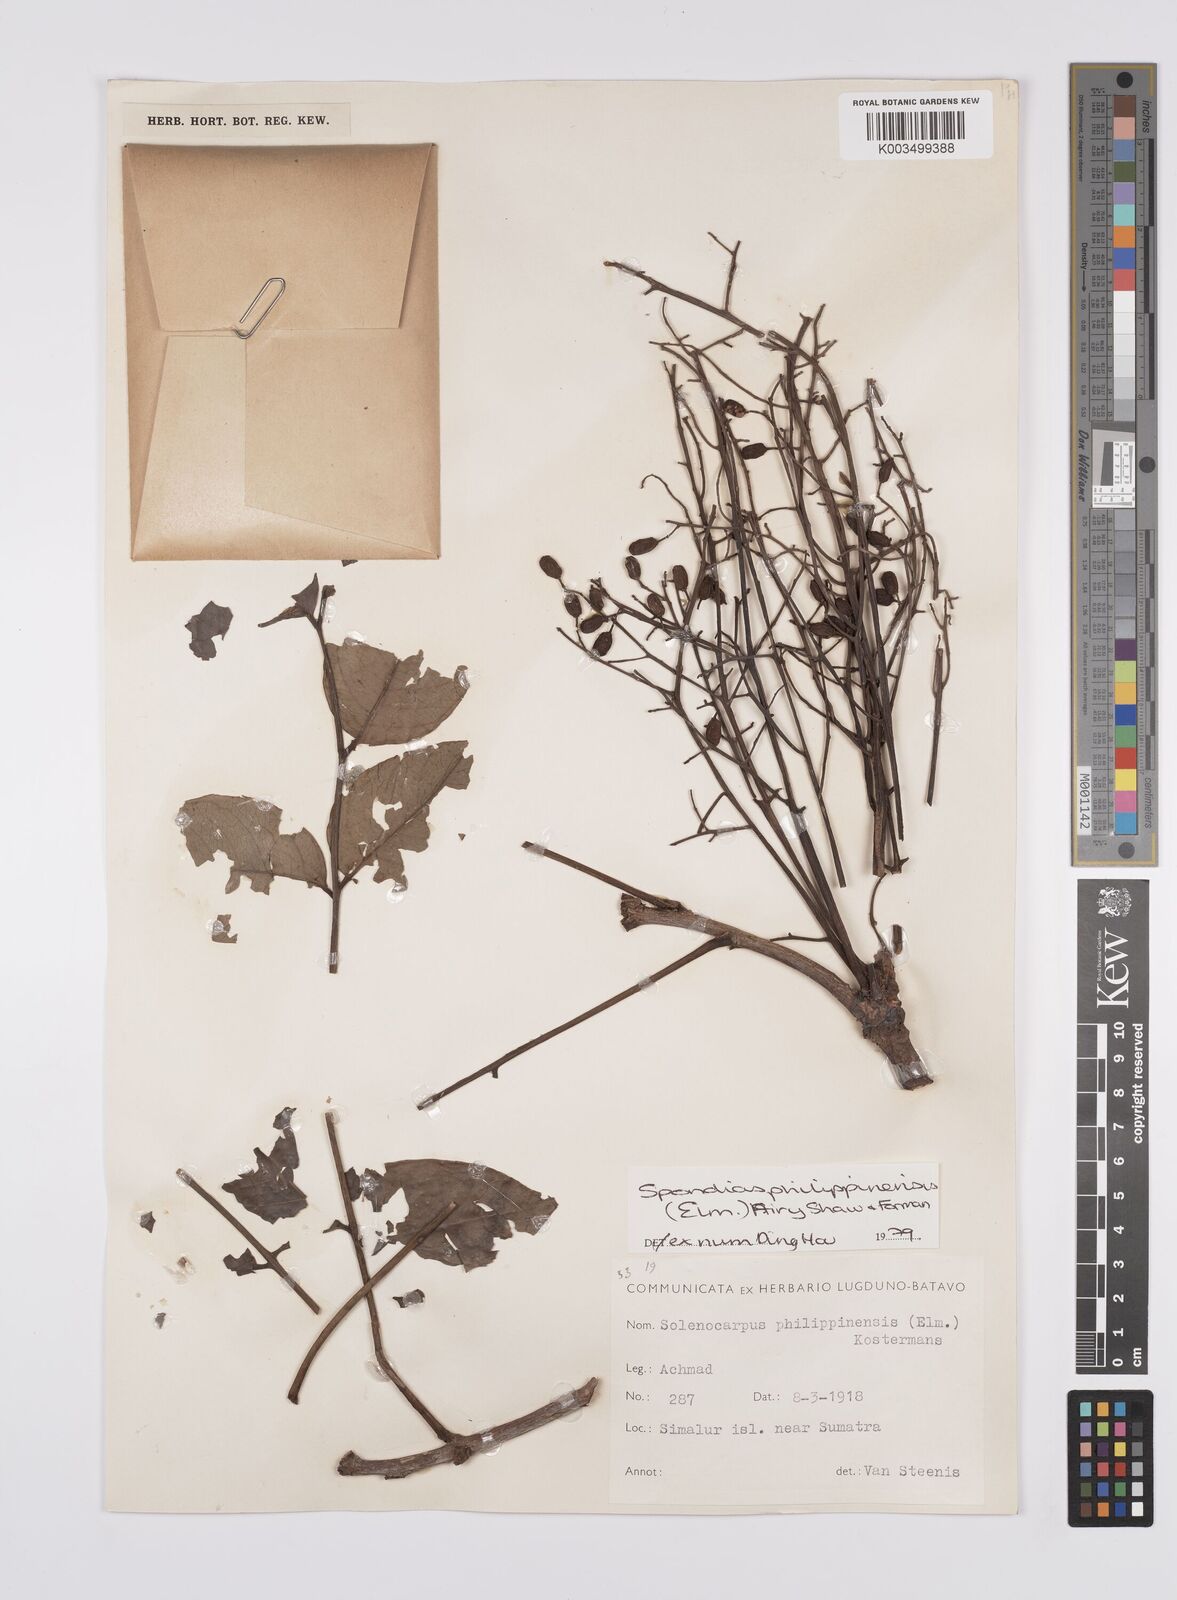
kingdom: Plantae
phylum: Tracheophyta
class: Magnoliopsida
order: Sapindales
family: Anacardiaceae
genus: Spondias
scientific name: Spondias philippinensis
